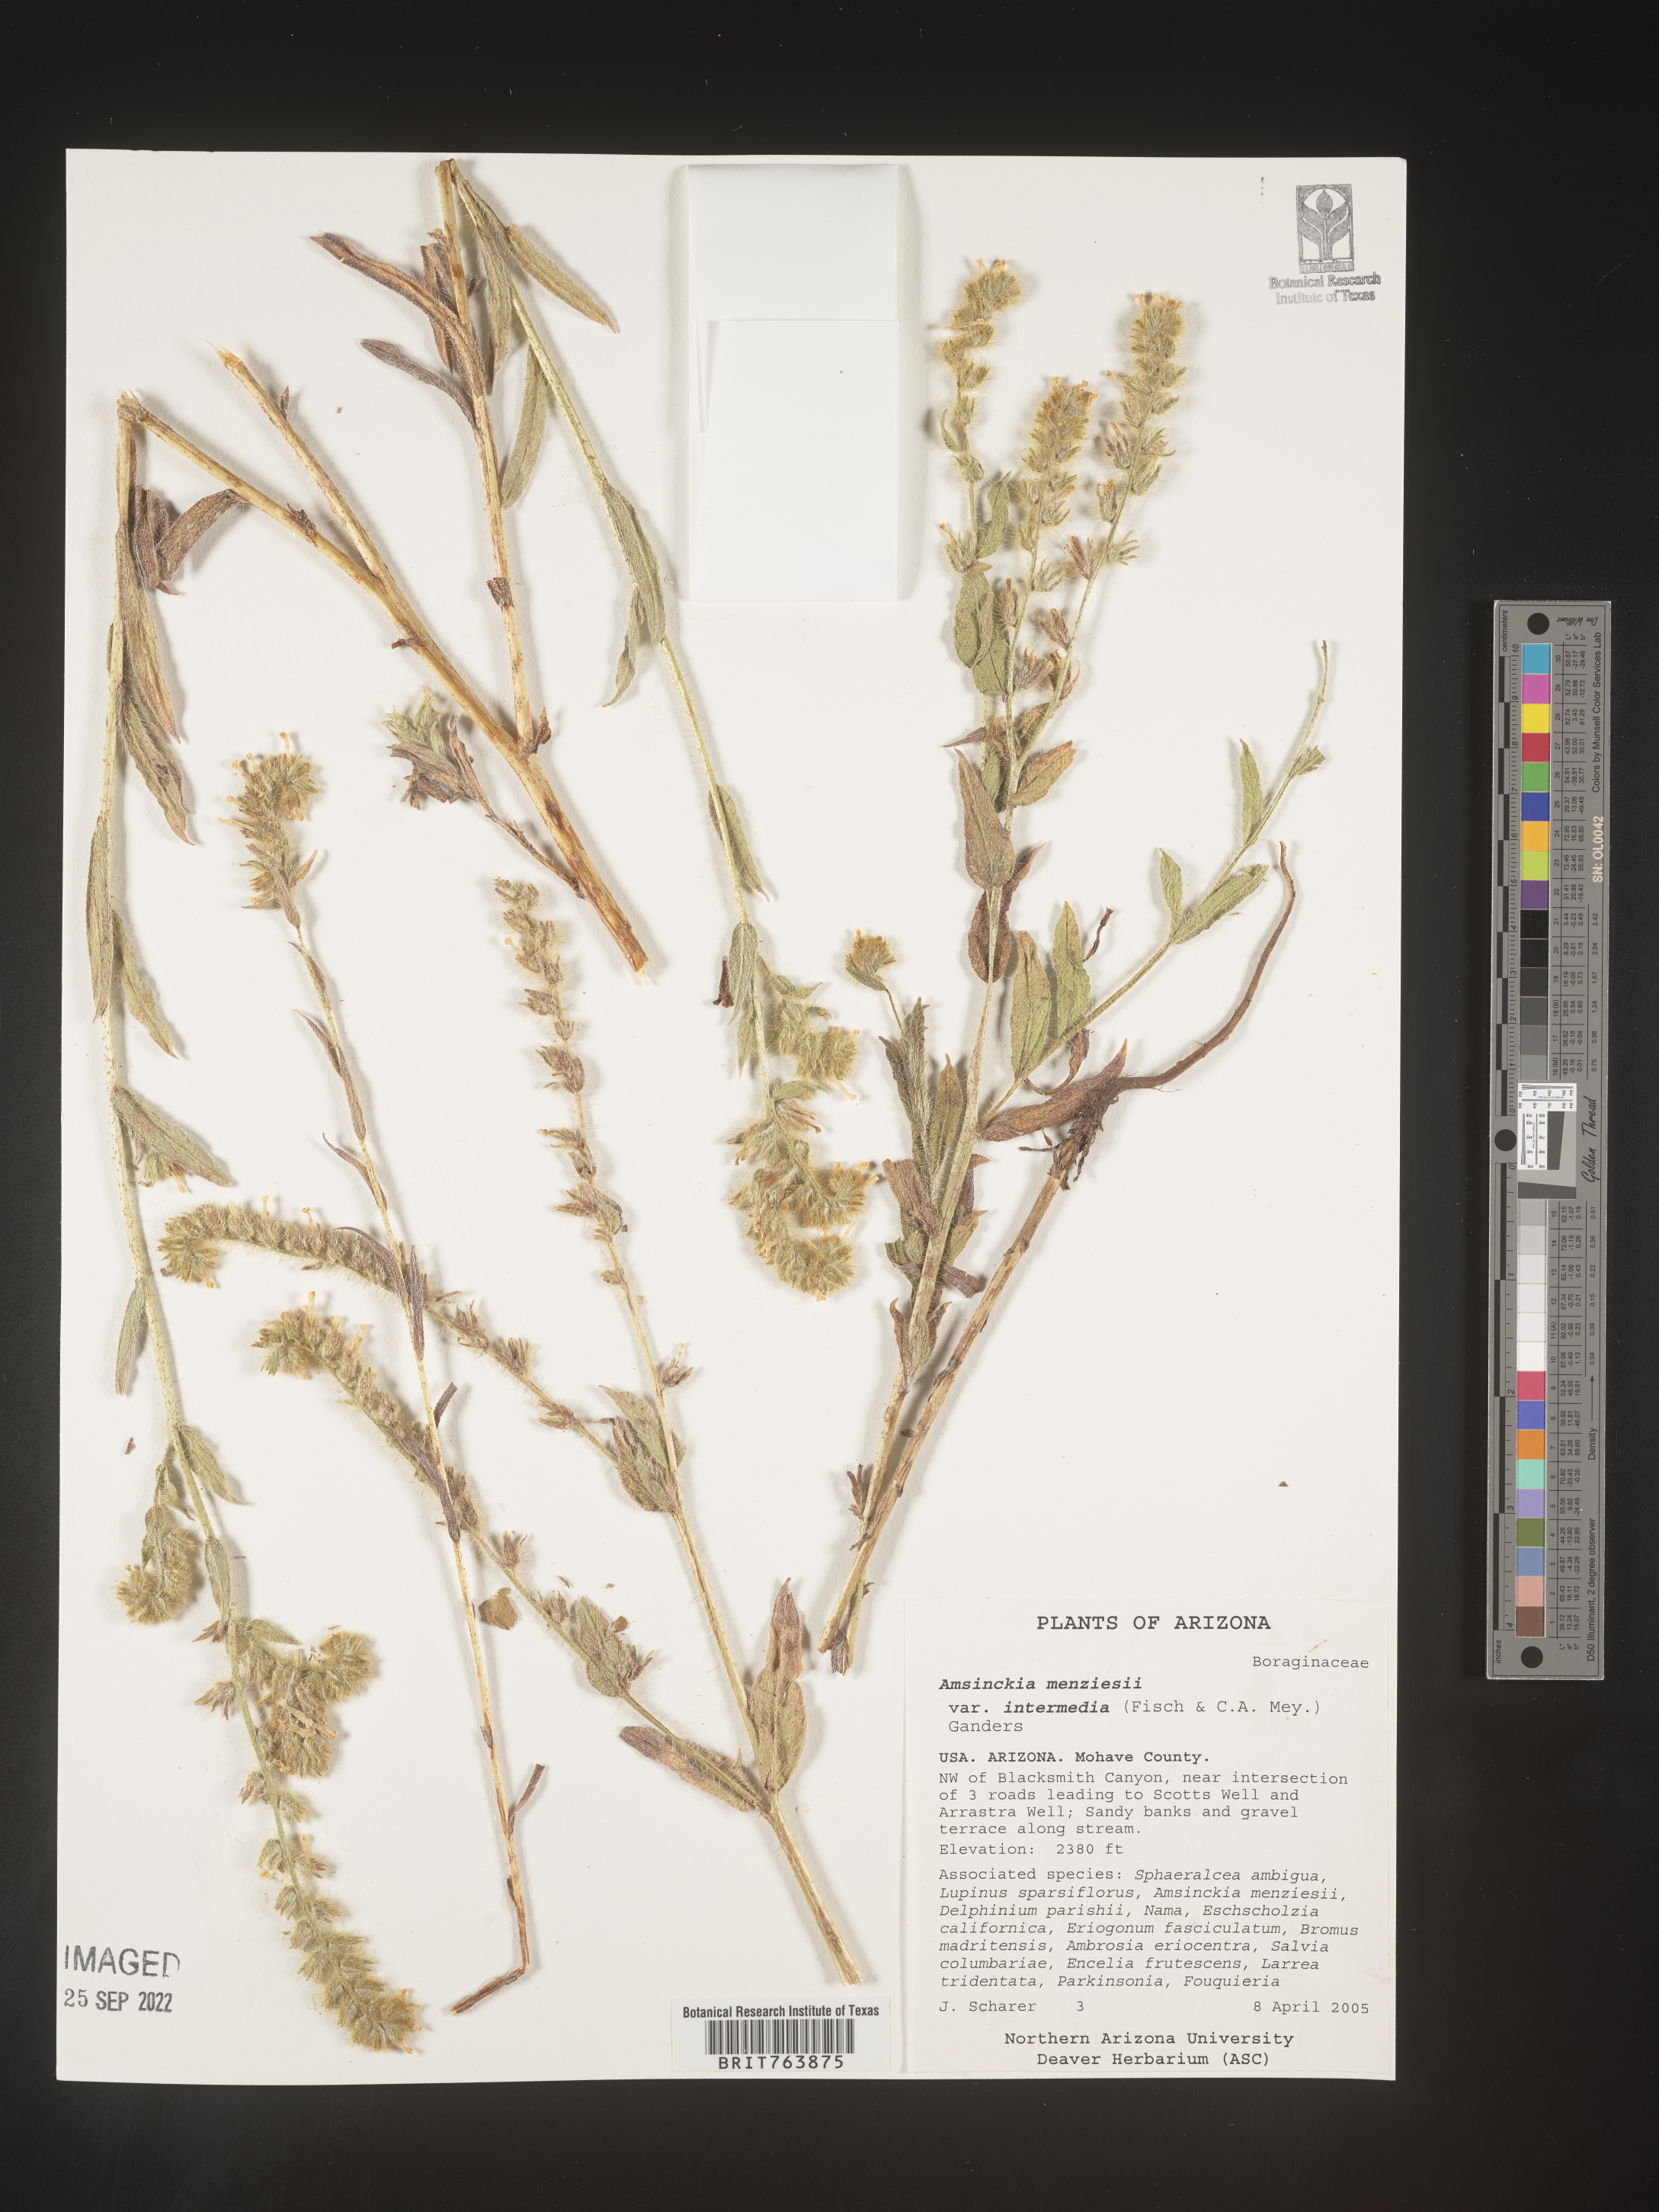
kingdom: Plantae
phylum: Tracheophyta
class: Magnoliopsida
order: Boraginales
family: Boraginaceae
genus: Amsinckia
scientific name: Amsinckia menziesii
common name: Menzies' fiddleneck
